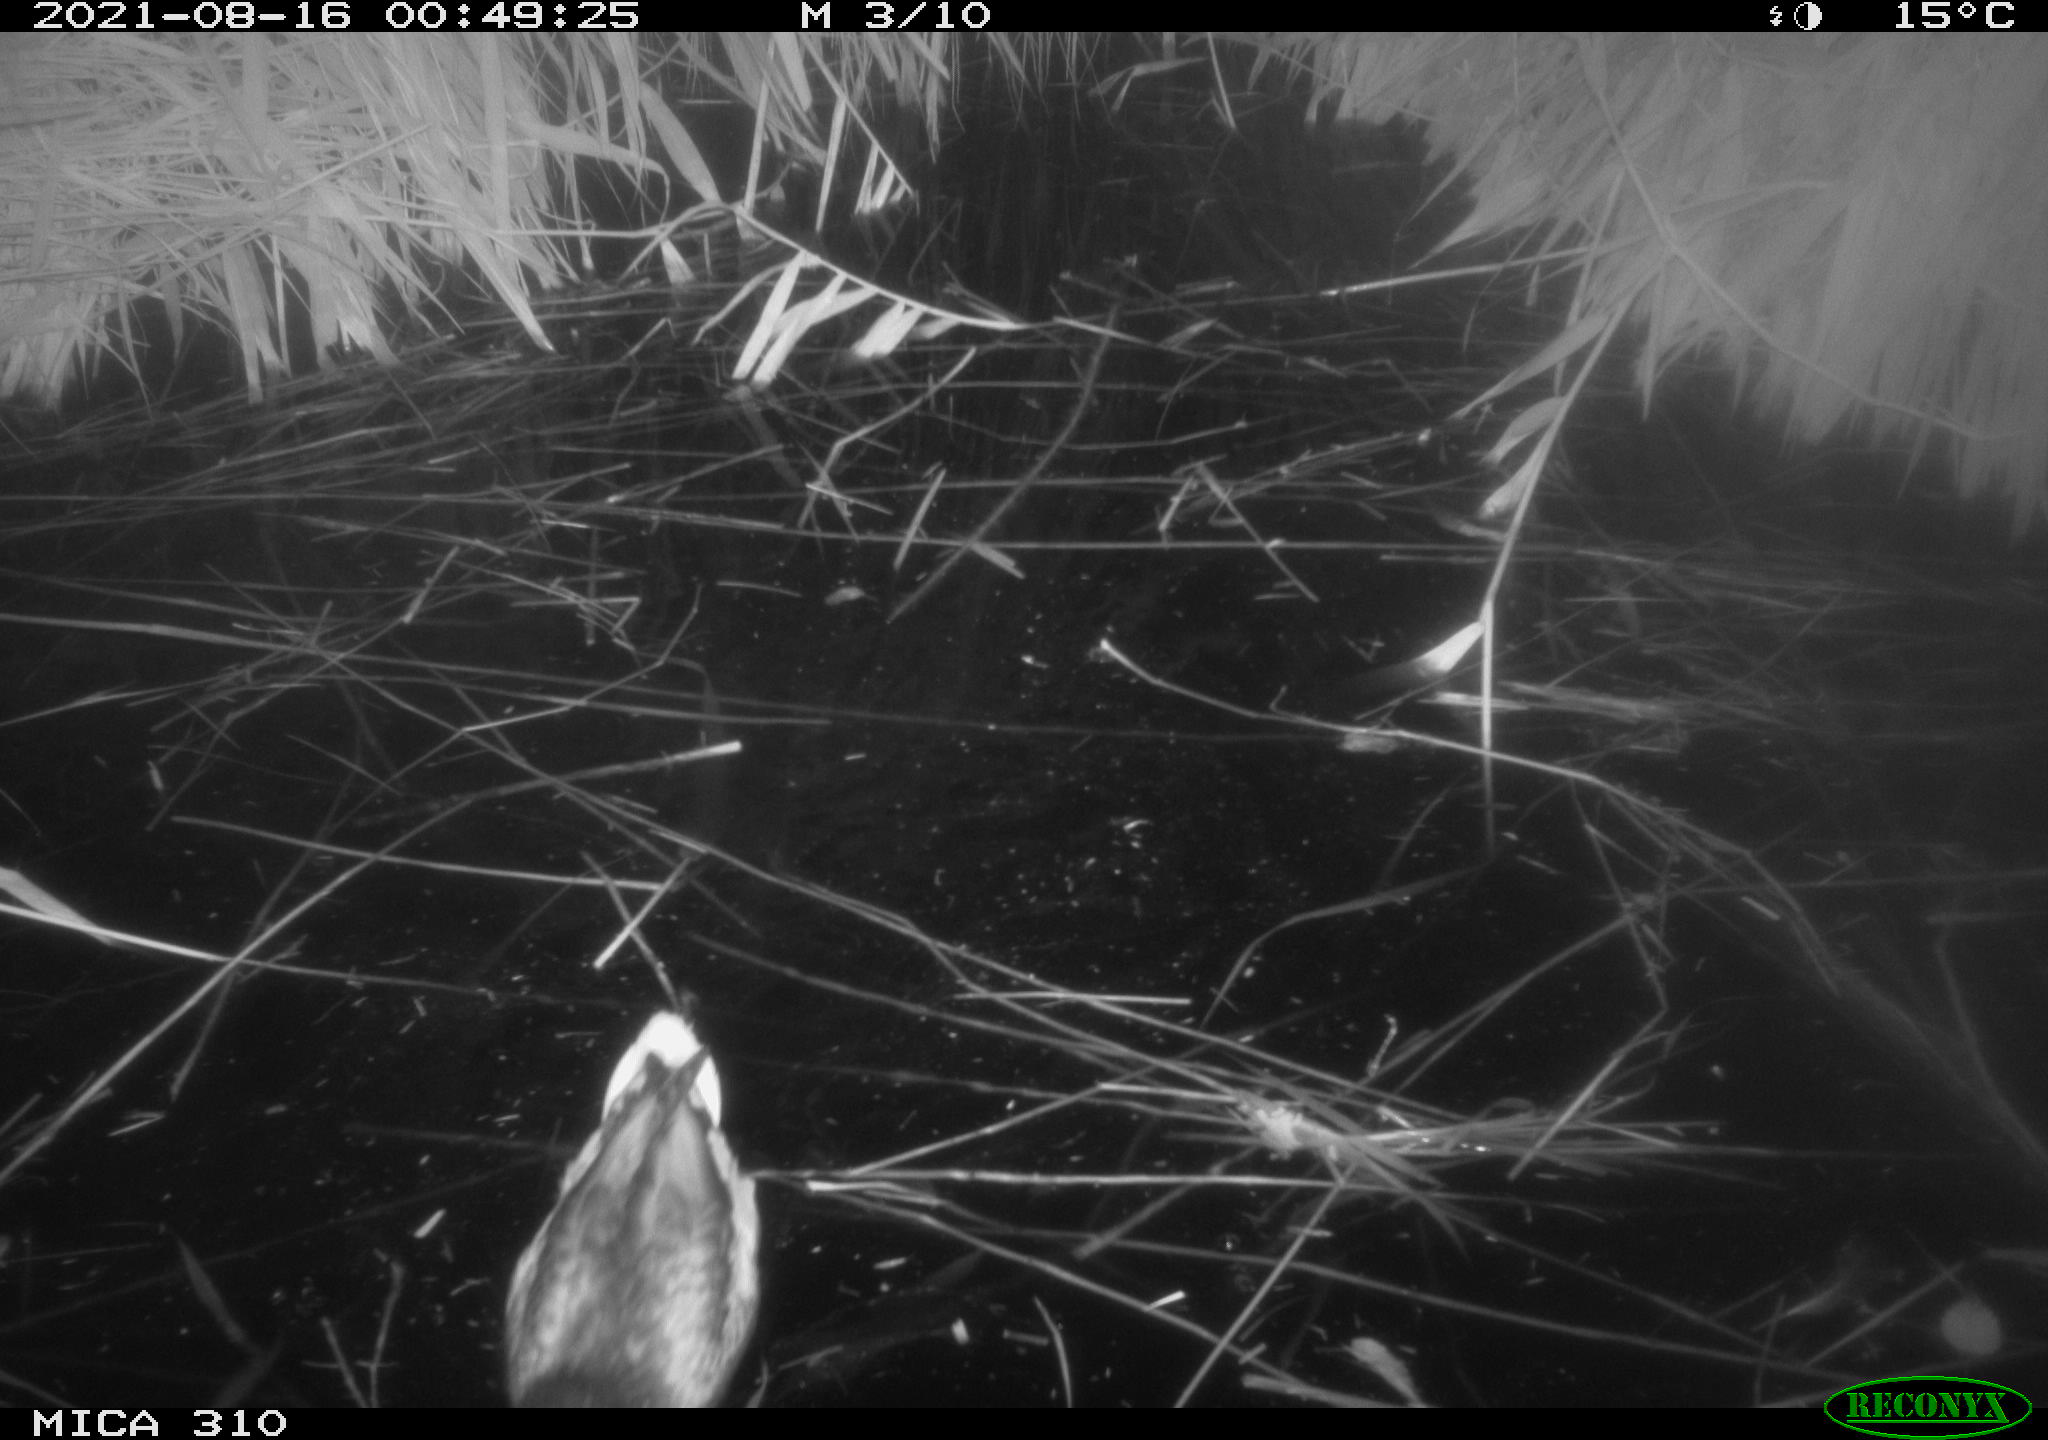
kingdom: Animalia
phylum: Chordata
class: Aves
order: Anseriformes
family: Anatidae
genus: Anas
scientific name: Anas platyrhynchos
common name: Mallard
